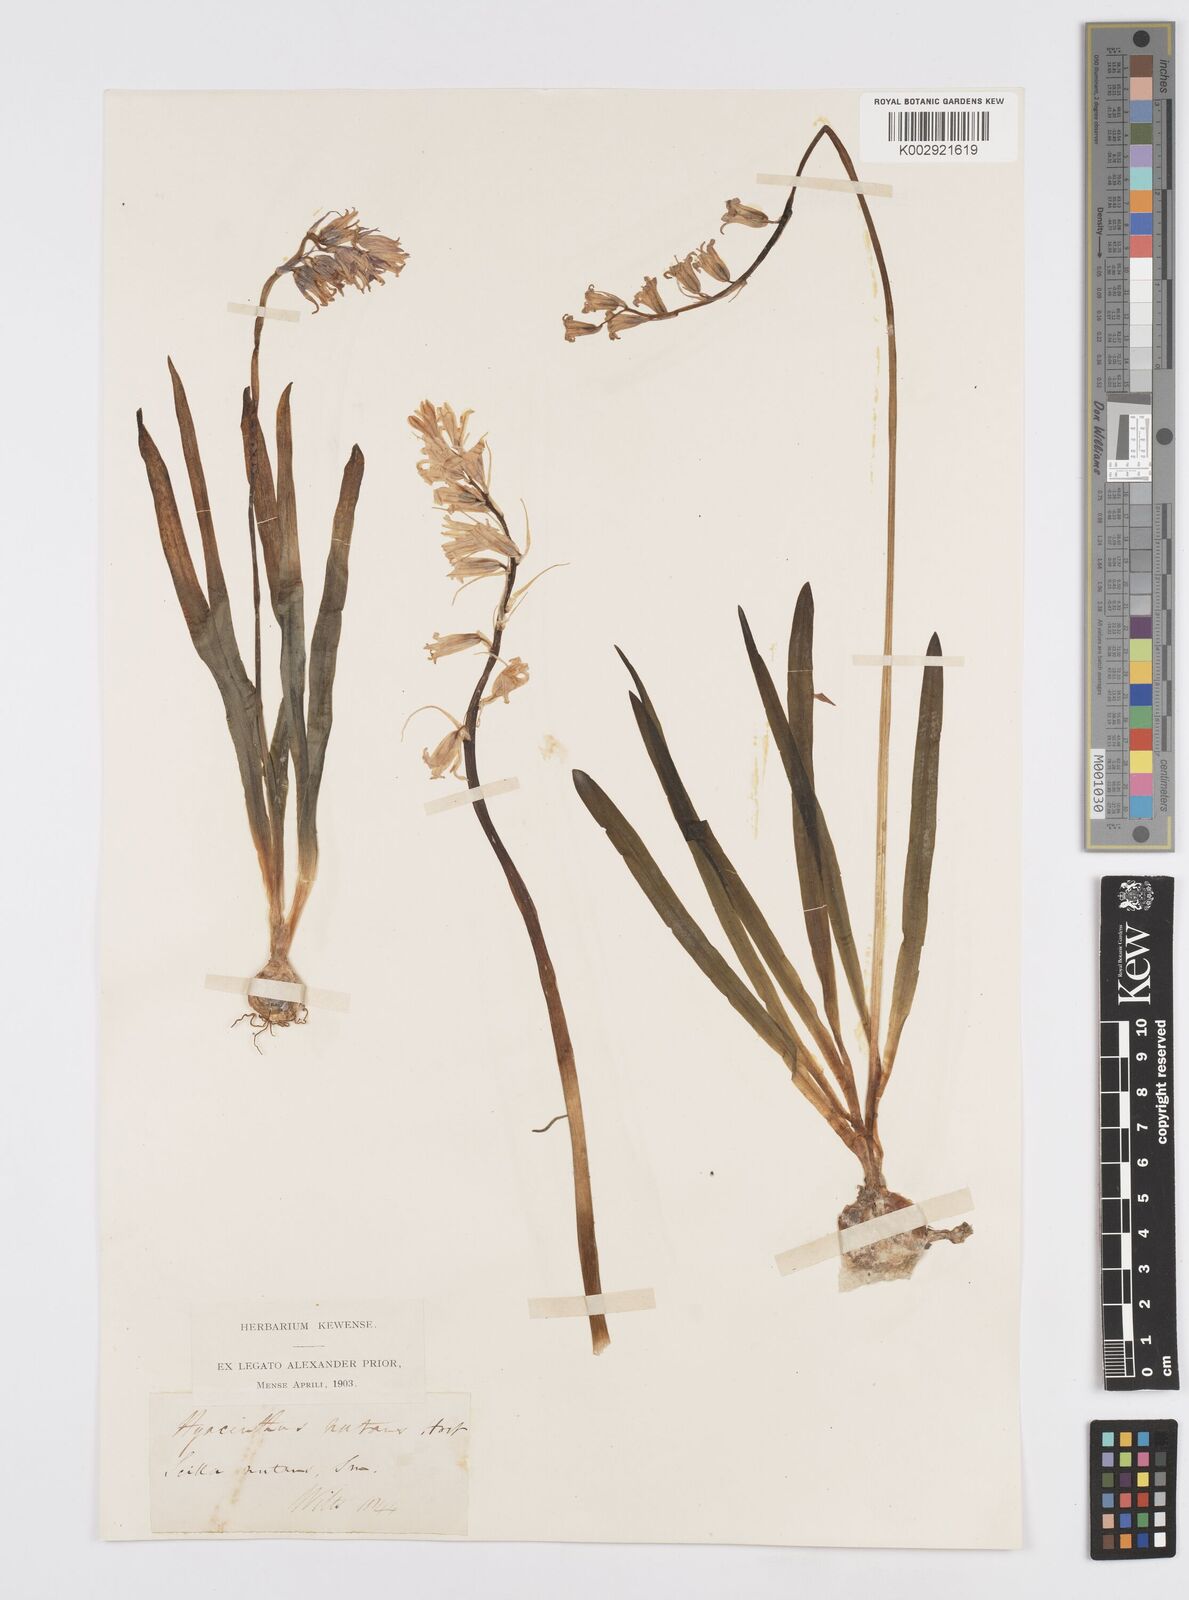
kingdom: Plantae
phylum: Tracheophyta
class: Liliopsida
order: Asparagales
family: Asparagaceae
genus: Hyacinthoides
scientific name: Hyacinthoides non-scripta
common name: Bluebell
